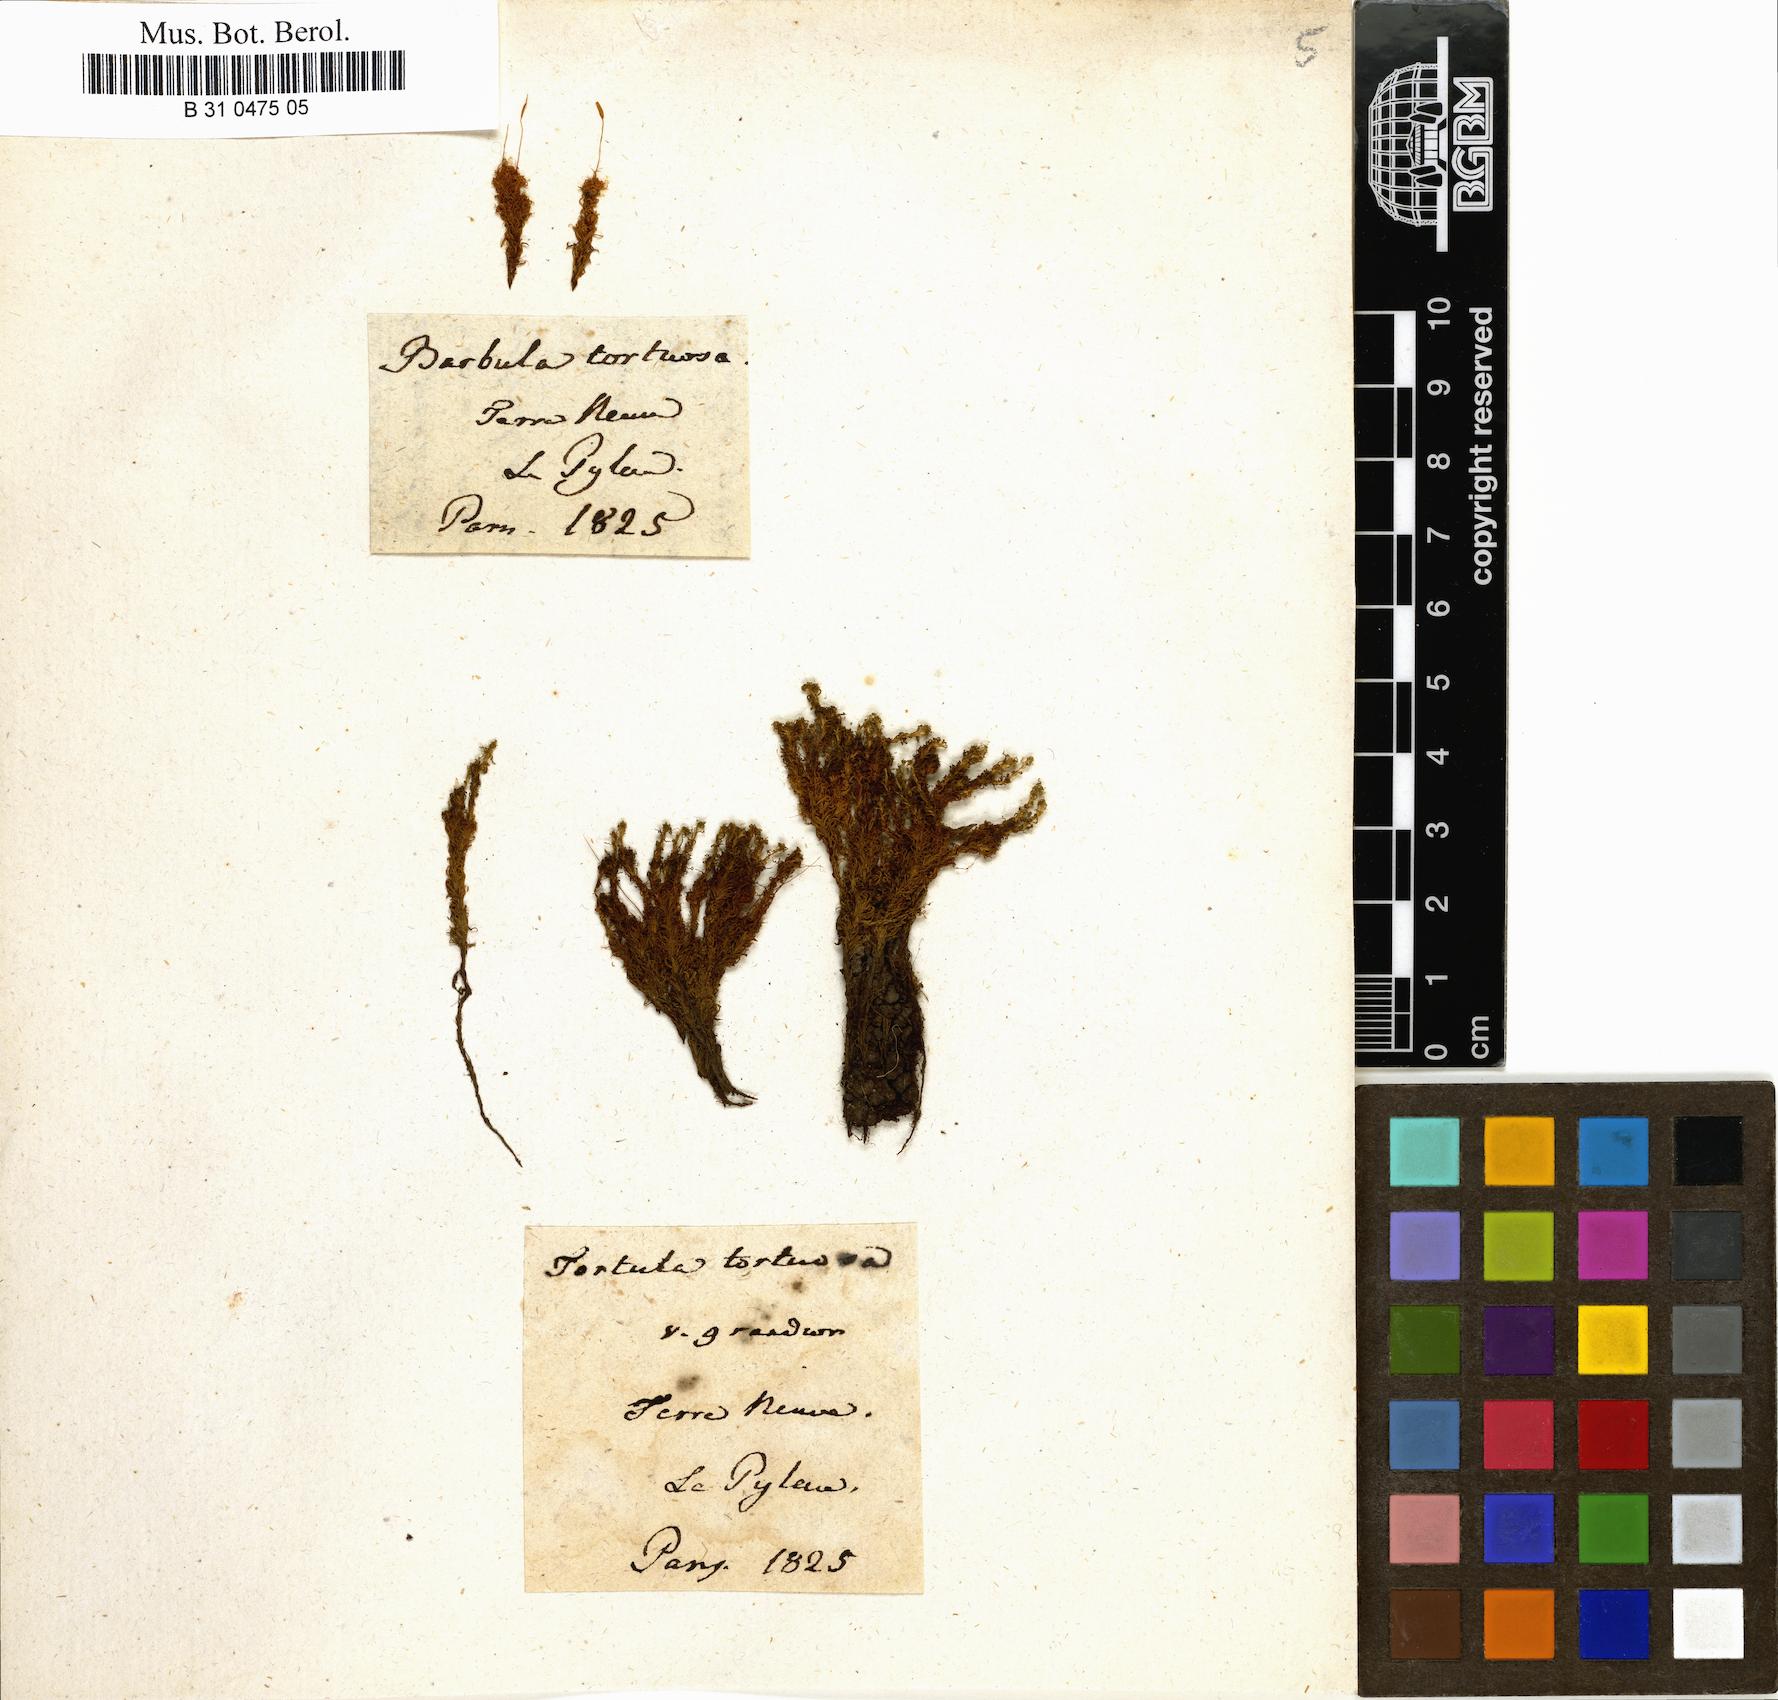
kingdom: Plantae
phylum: Bryophyta
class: Bryopsida
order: Pottiales
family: Pottiaceae
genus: Tortella
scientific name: Tortella tortuosa
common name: Frizzled crisp moss
